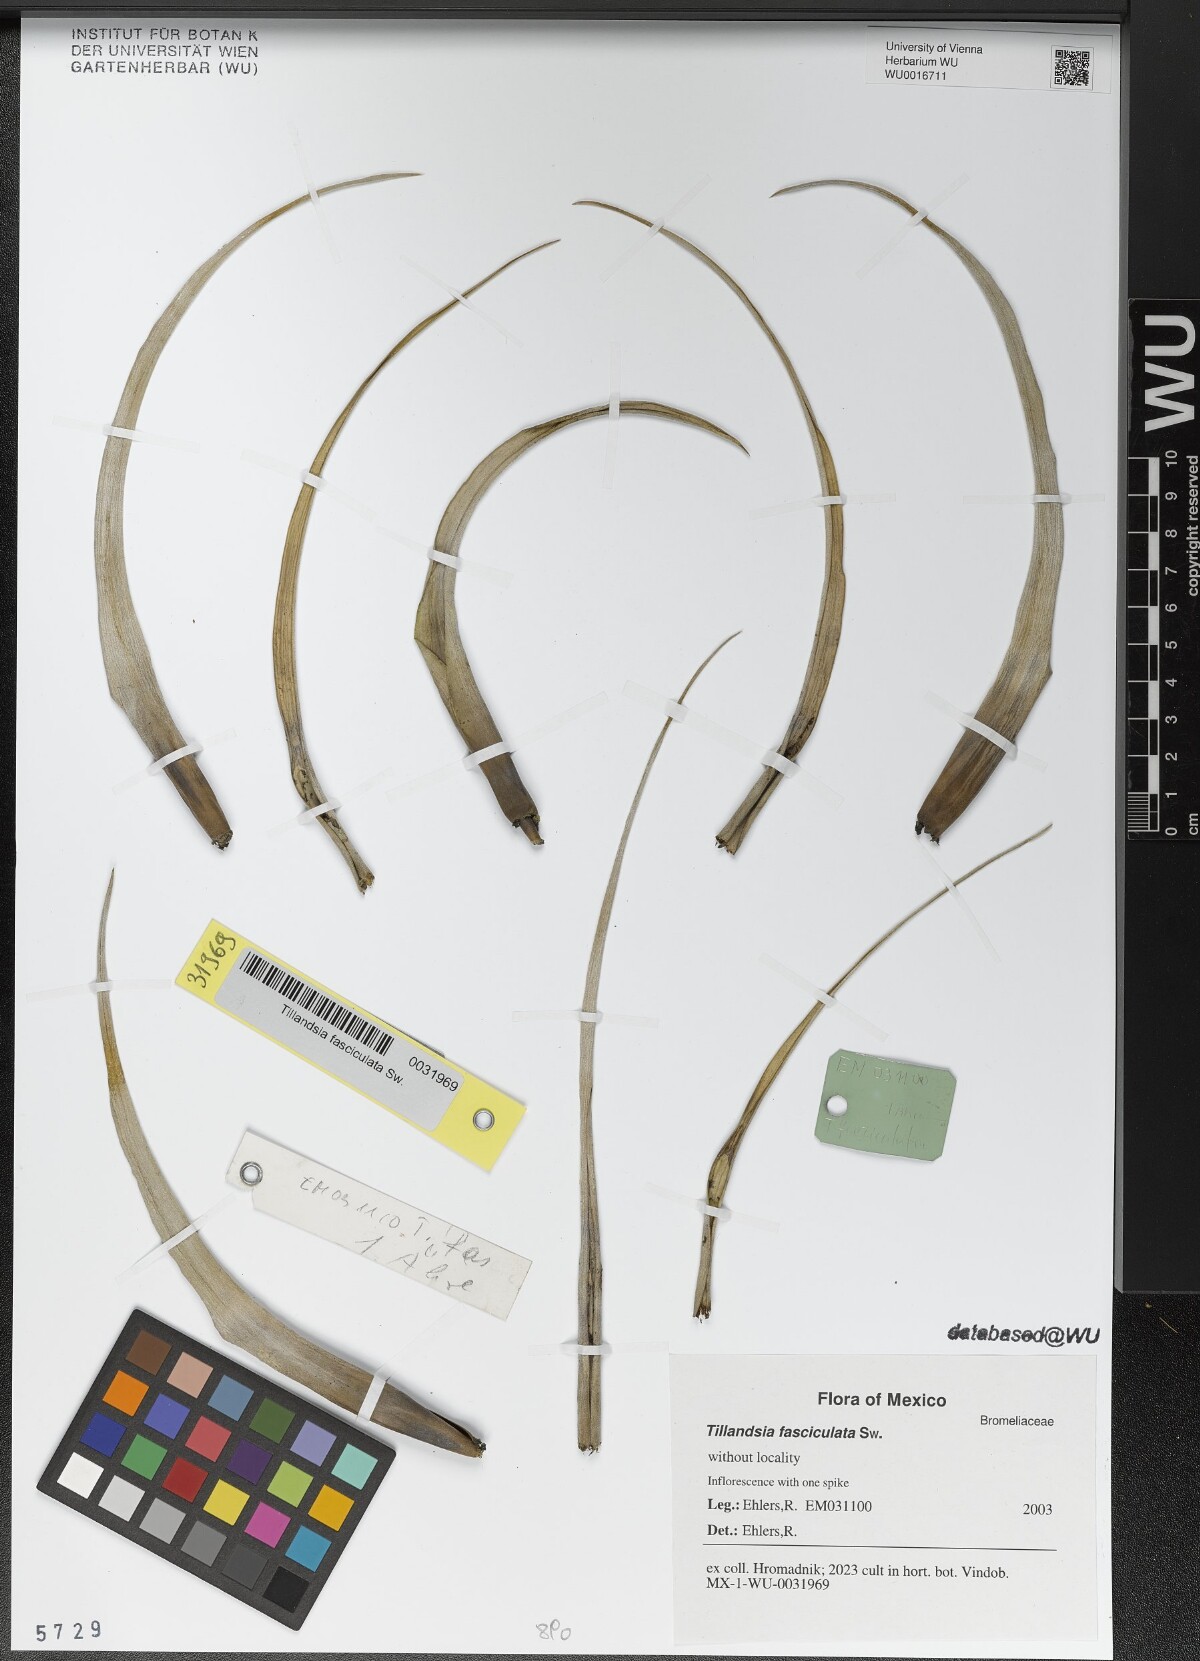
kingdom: Plantae
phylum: Tracheophyta
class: Liliopsida
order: Poales
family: Bromeliaceae
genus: Tillandsia
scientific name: Tillandsia fasciculata
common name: Giant airplant
